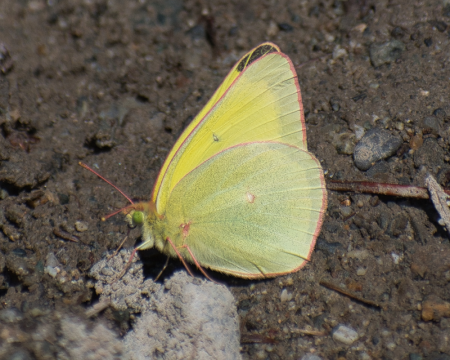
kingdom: Animalia
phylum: Arthropoda
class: Insecta
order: Lepidoptera
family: Pieridae
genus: Colias
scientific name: Colias alexandra
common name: Queen Alexandra's Sulphur
